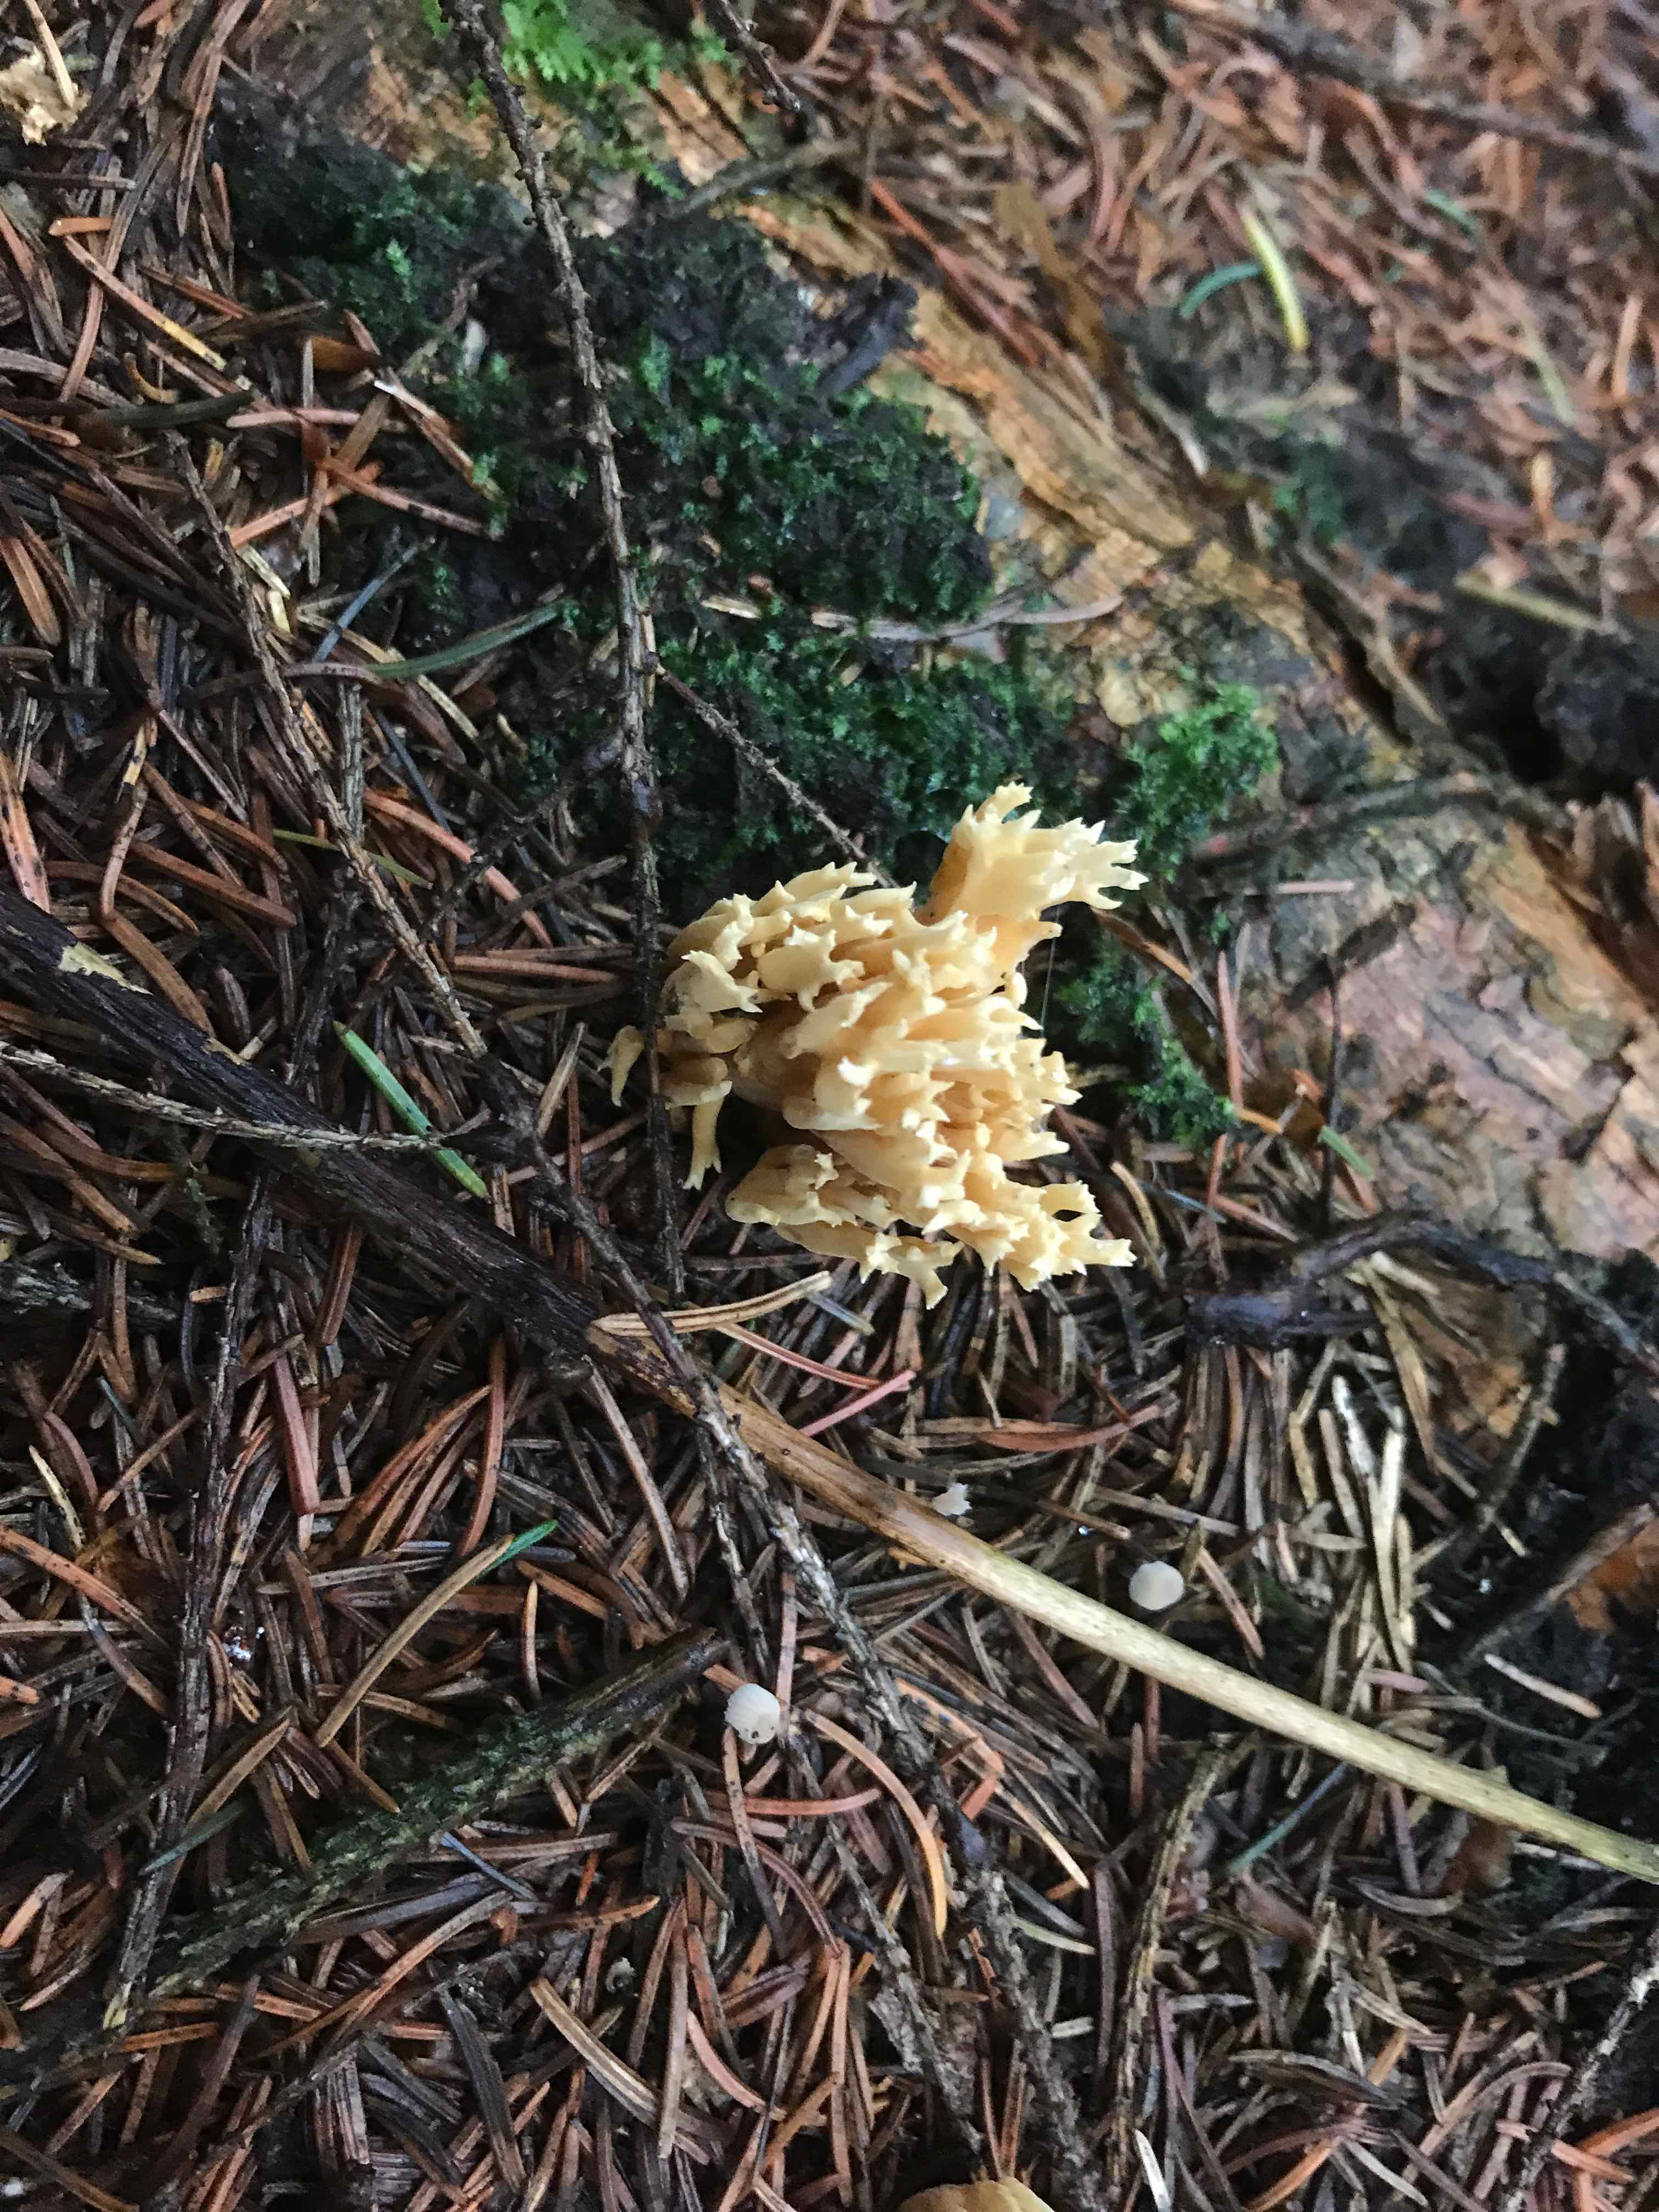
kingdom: Fungi
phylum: Basidiomycota
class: Agaricomycetes
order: Gomphales
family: Gomphaceae
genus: Phaeoclavulina
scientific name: Phaeoclavulina eumorpha
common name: gran-koralsvamp
